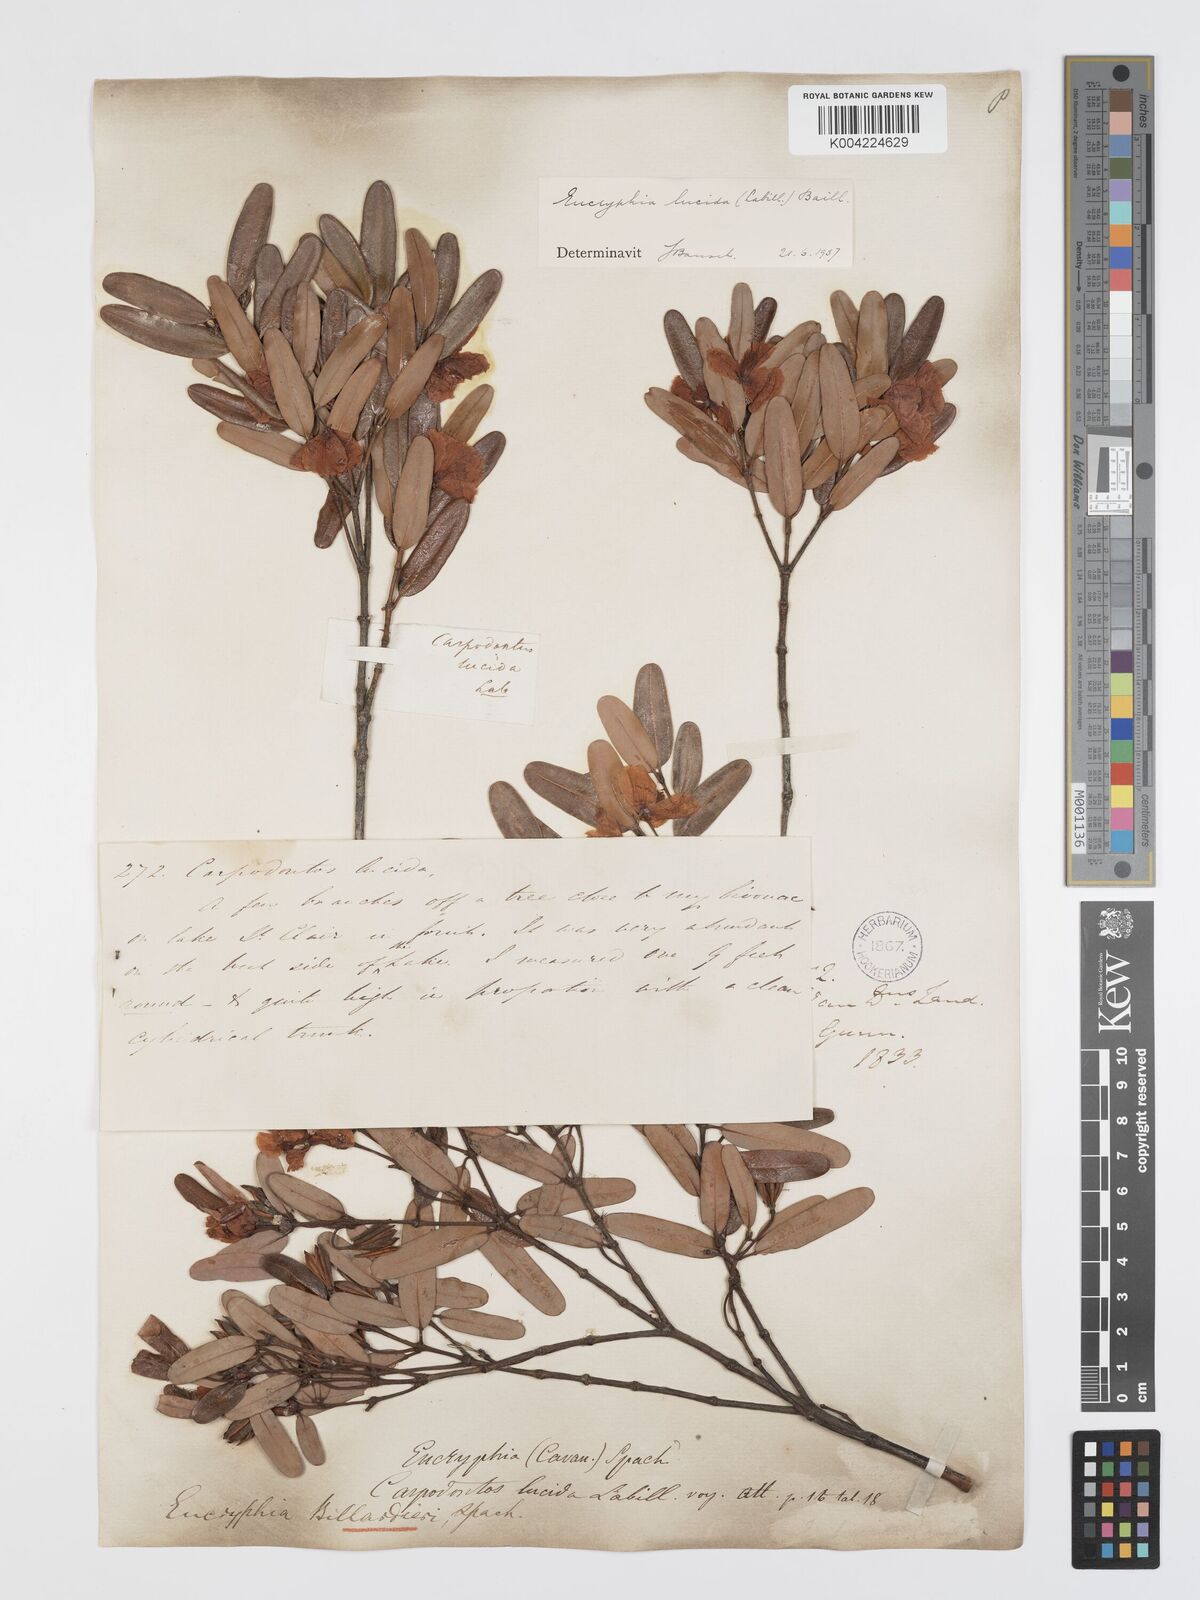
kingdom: Plantae
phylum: Tracheophyta
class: Magnoliopsida
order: Oxalidales
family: Cunoniaceae
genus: Eucryphia
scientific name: Eucryphia lucida
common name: Leatherwood
